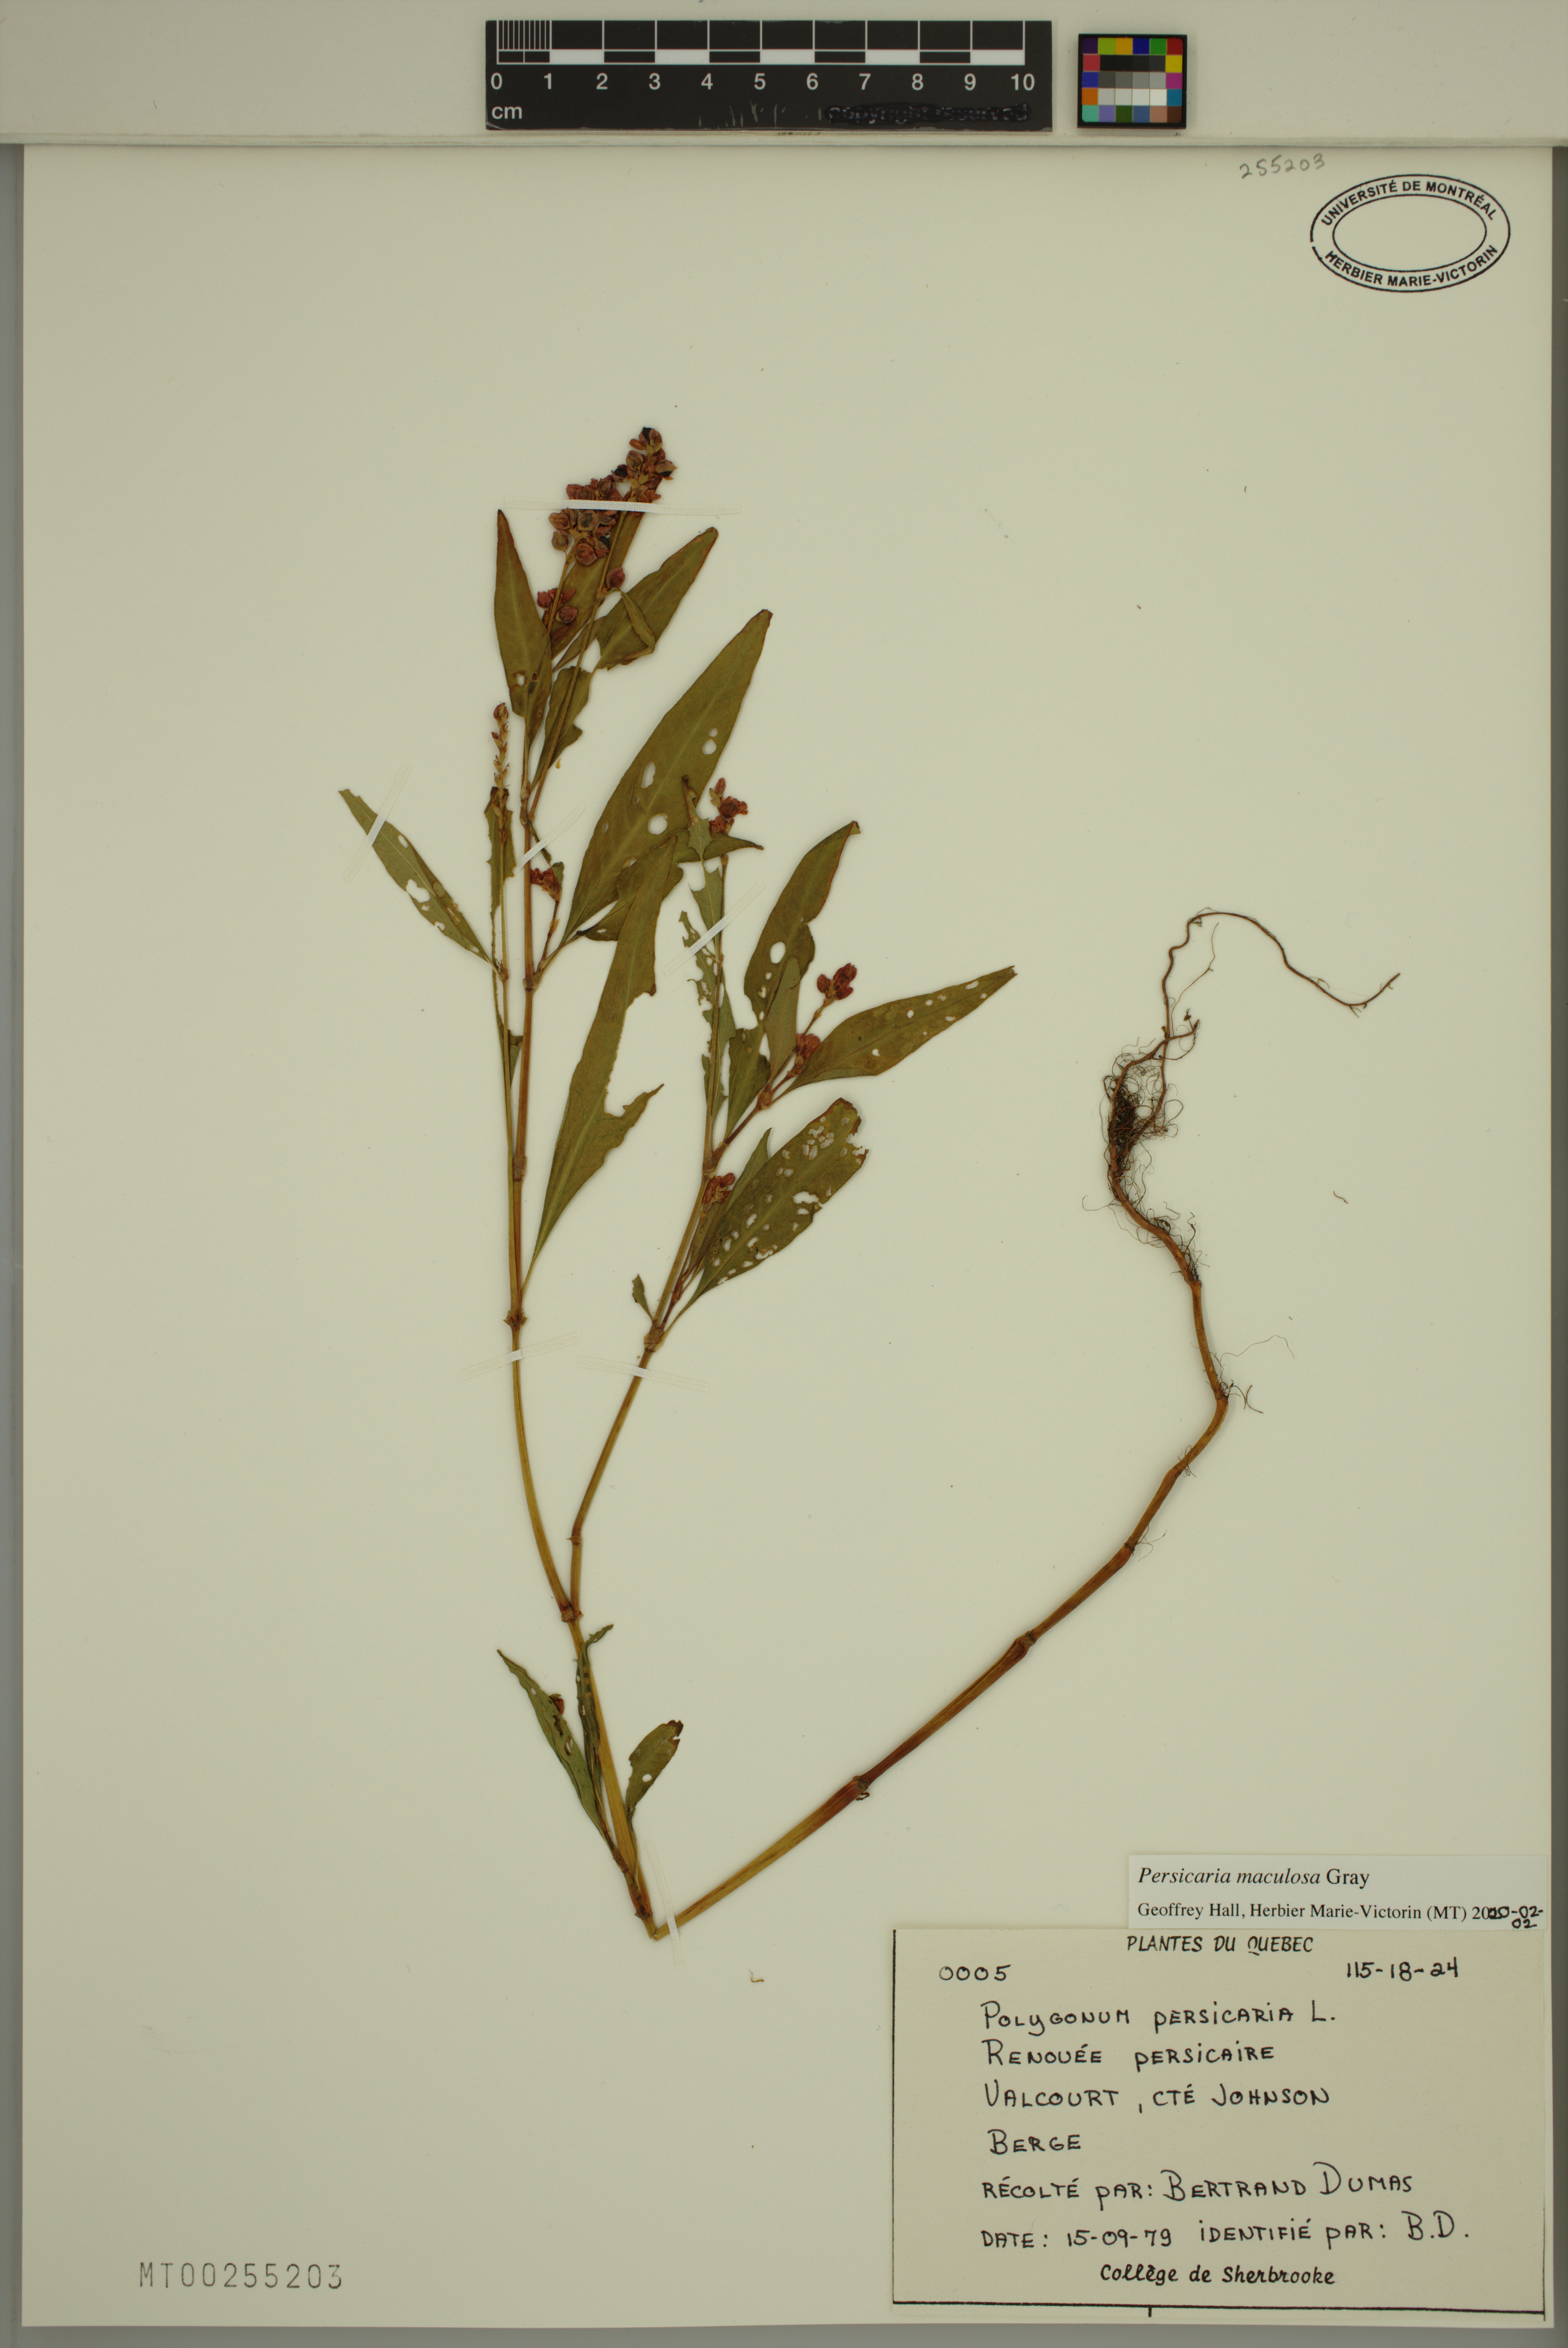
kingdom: Plantae
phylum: Tracheophyta
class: Magnoliopsida
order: Caryophyllales
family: Polygonaceae
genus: Persicaria
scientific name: Persicaria maculosa
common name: Redshank
